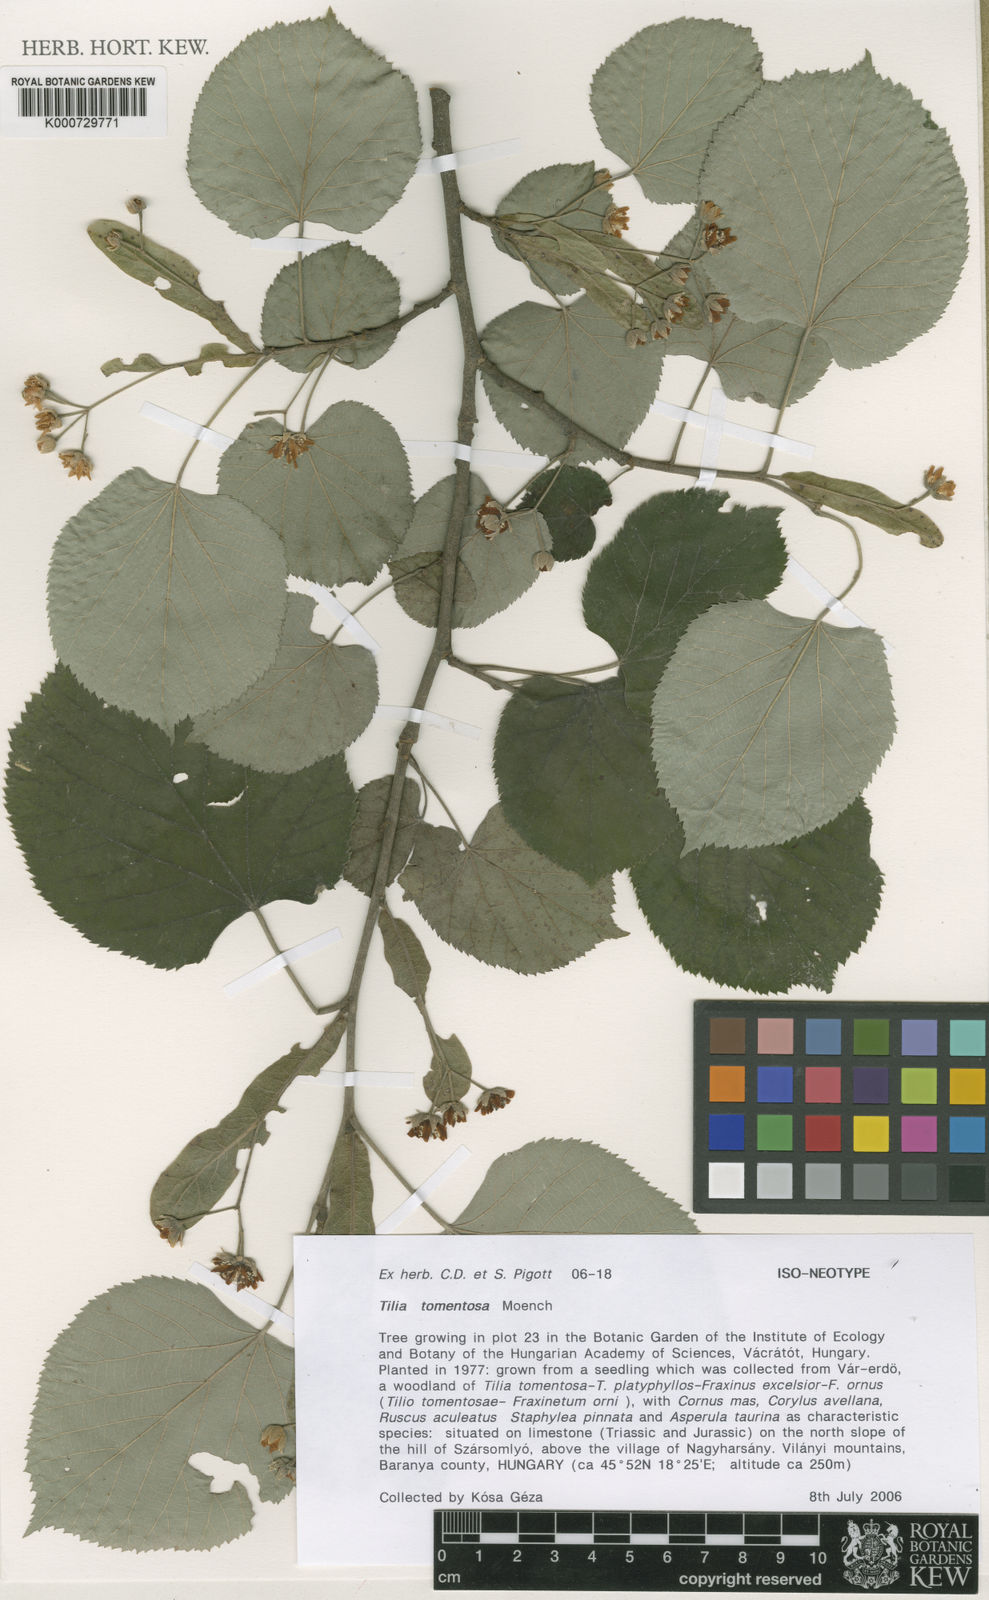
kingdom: Plantae
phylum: Tracheophyta
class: Magnoliopsida
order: Malvales
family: Malvaceae
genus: Tilia
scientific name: Tilia tomentosa
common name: Silver lime
